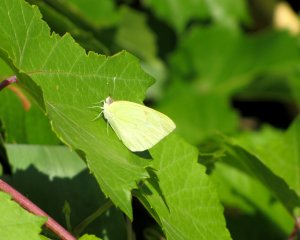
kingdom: Animalia
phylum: Arthropoda
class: Insecta
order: Lepidoptera
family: Pieridae
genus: Kricogonia
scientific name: Kricogonia lyside
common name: Lyside Sulphur
